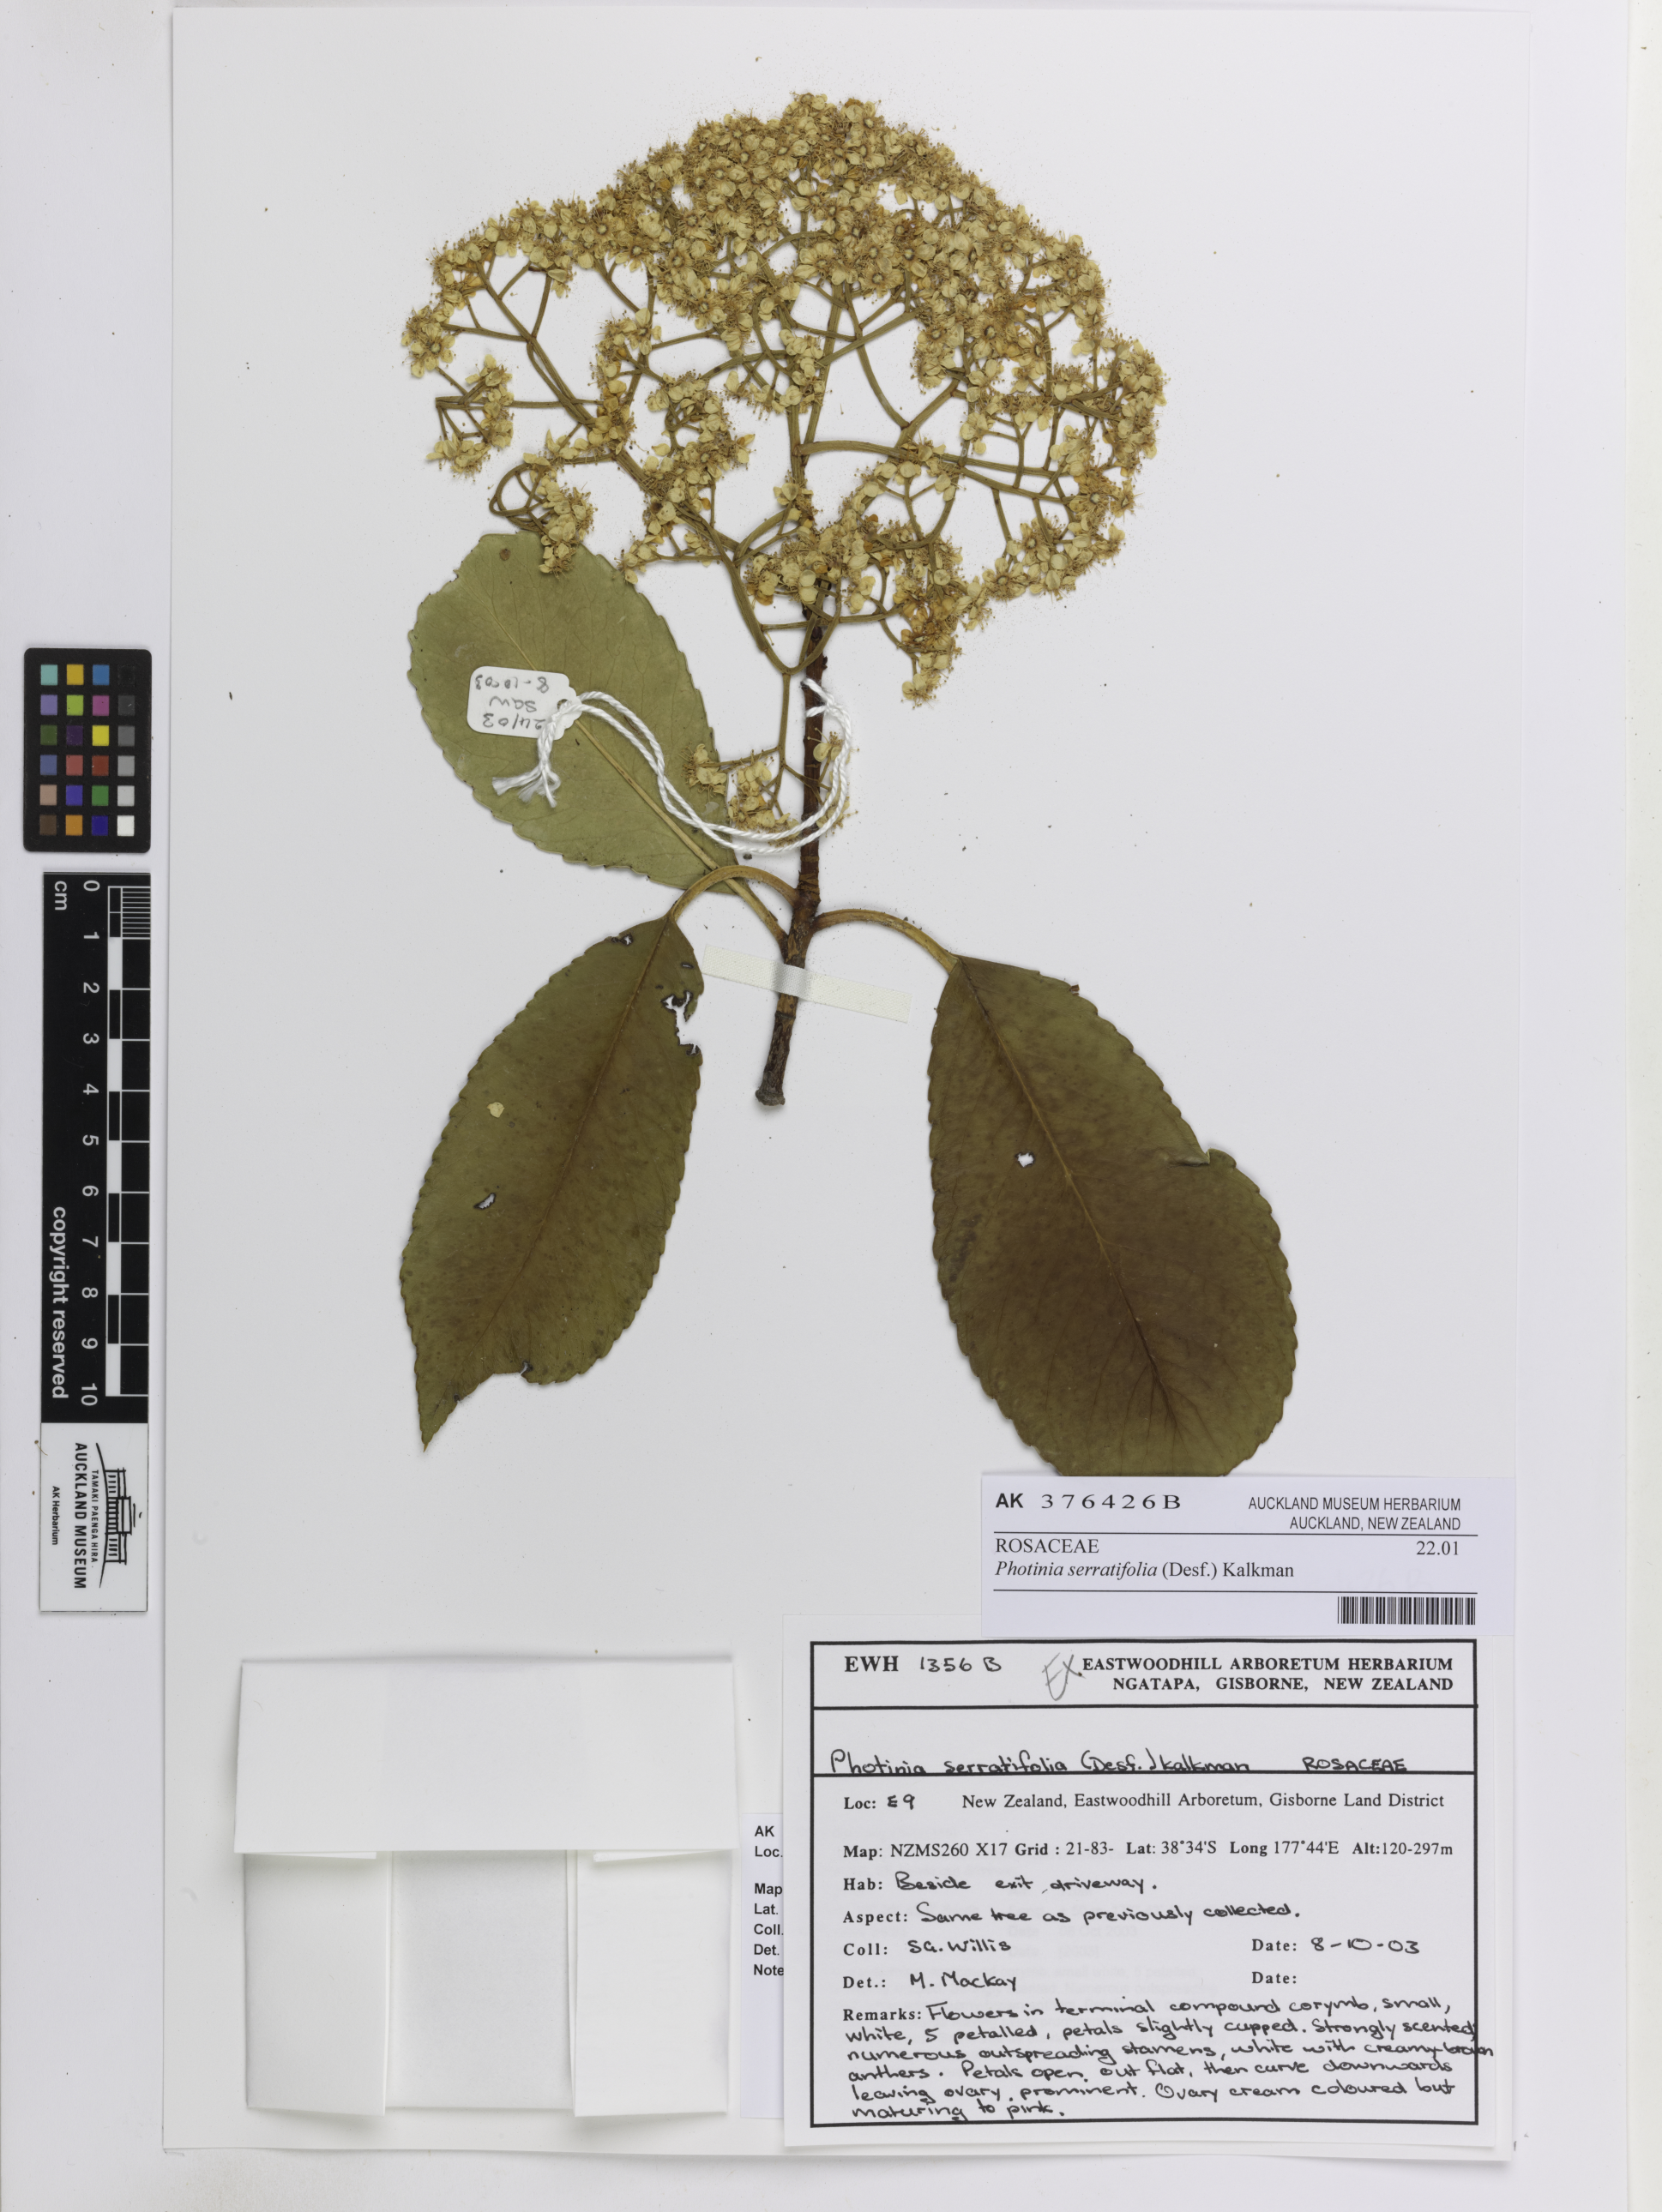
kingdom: Plantae
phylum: Tracheophyta
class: Magnoliopsida
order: Rosales
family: Rosaceae
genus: Photinia
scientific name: Photinia serratifolia
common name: Taiwanese photinia
